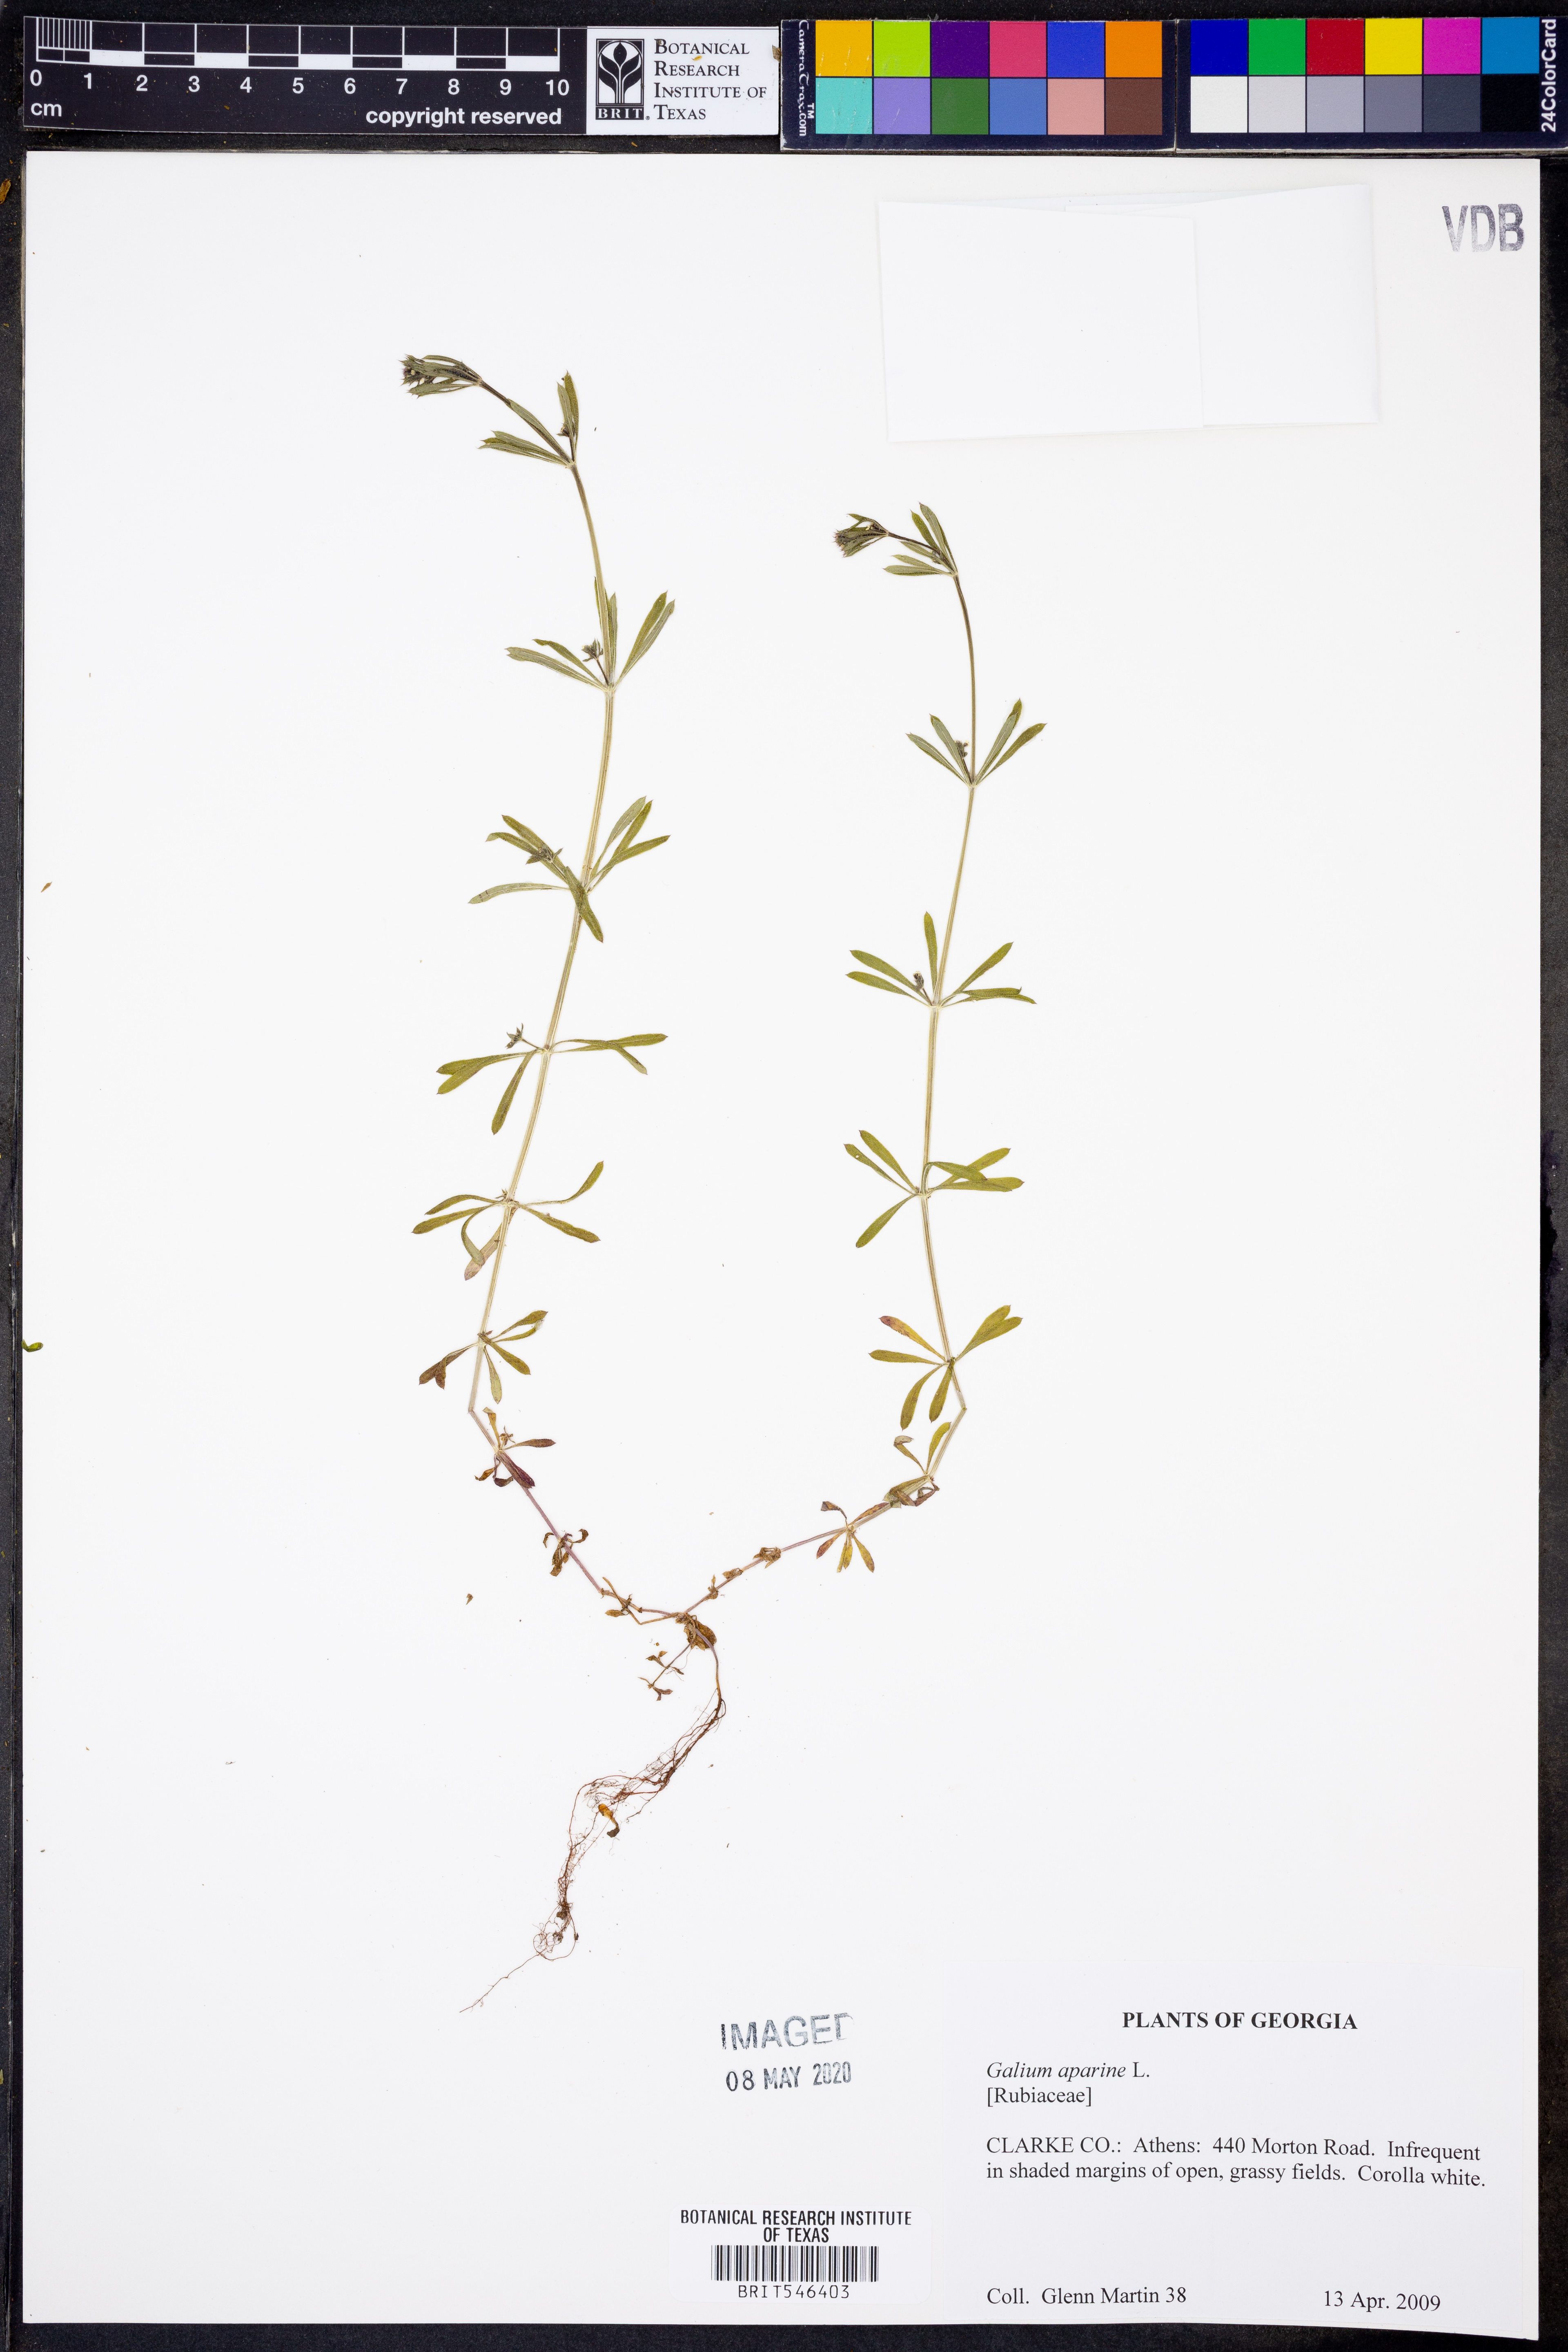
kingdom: Plantae
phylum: Tracheophyta
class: Magnoliopsida
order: Gentianales
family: Rubiaceae
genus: Galium
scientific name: Galium aparine
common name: Cleavers
